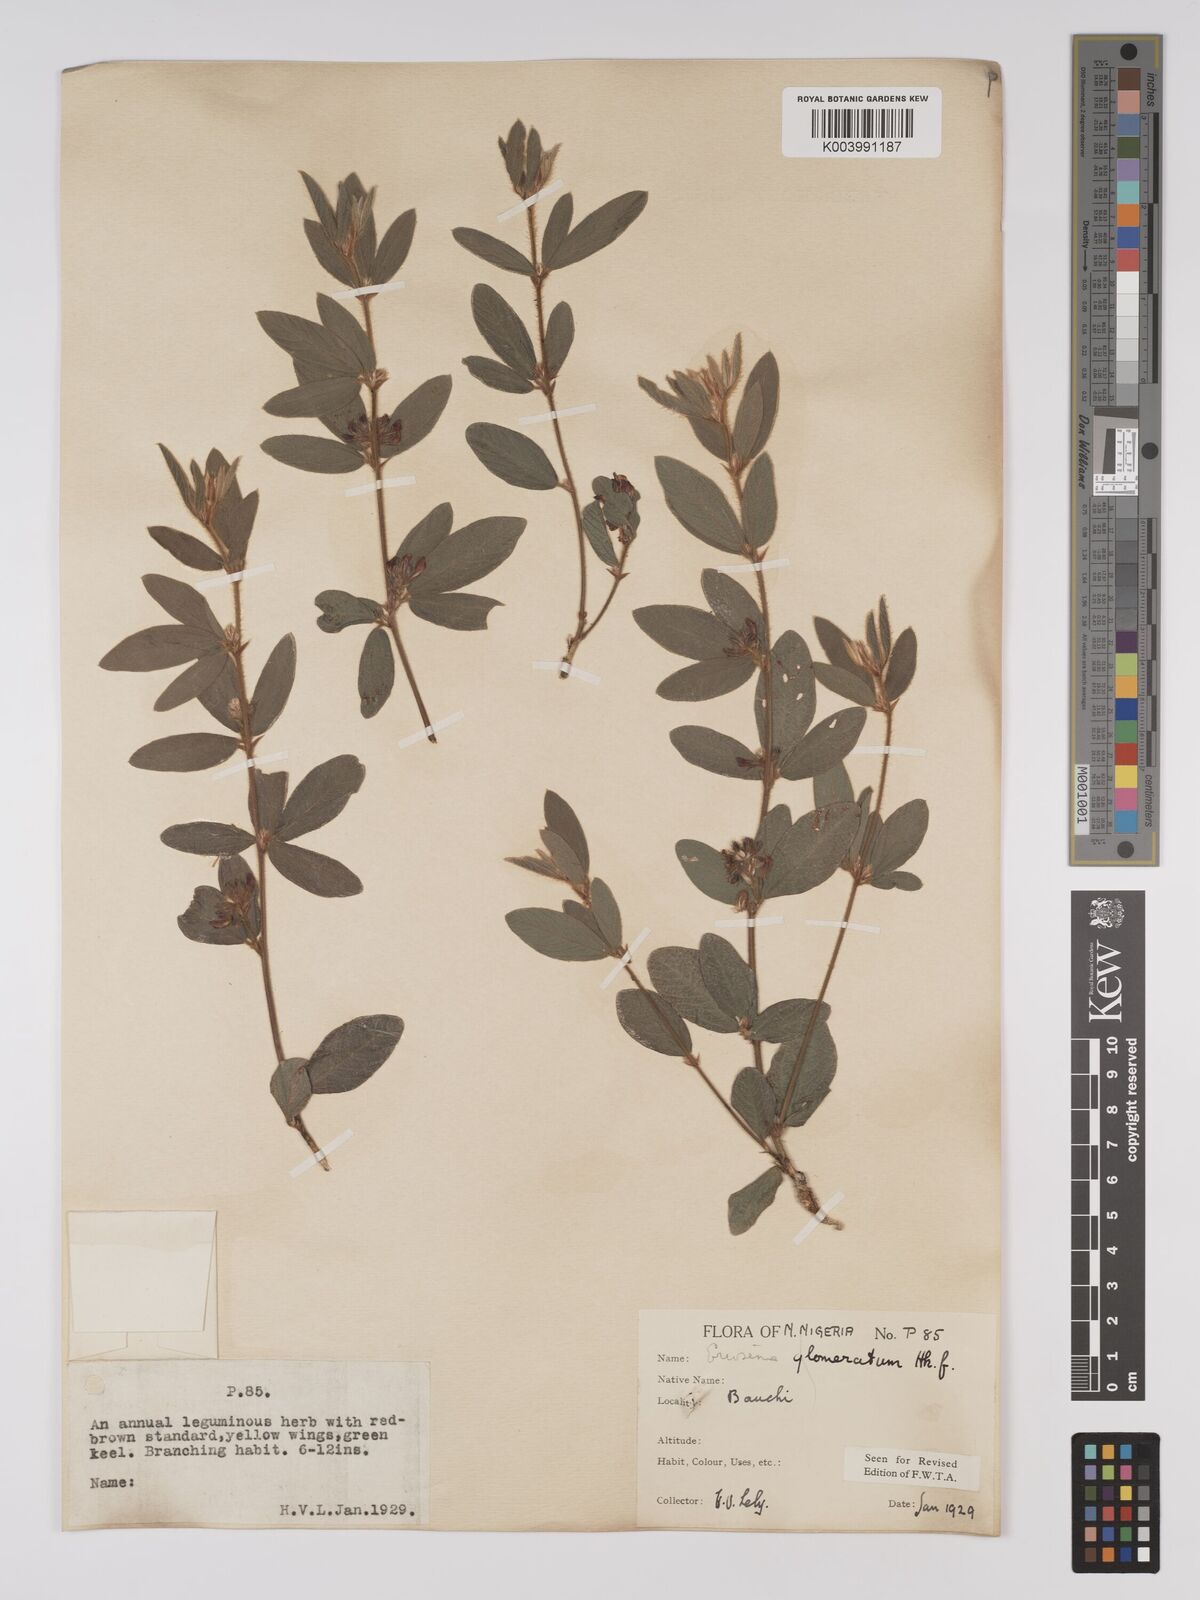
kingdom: Plantae
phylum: Tracheophyta
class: Magnoliopsida
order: Fabales
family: Fabaceae
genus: Eriosema
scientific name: Eriosema glomeratum
